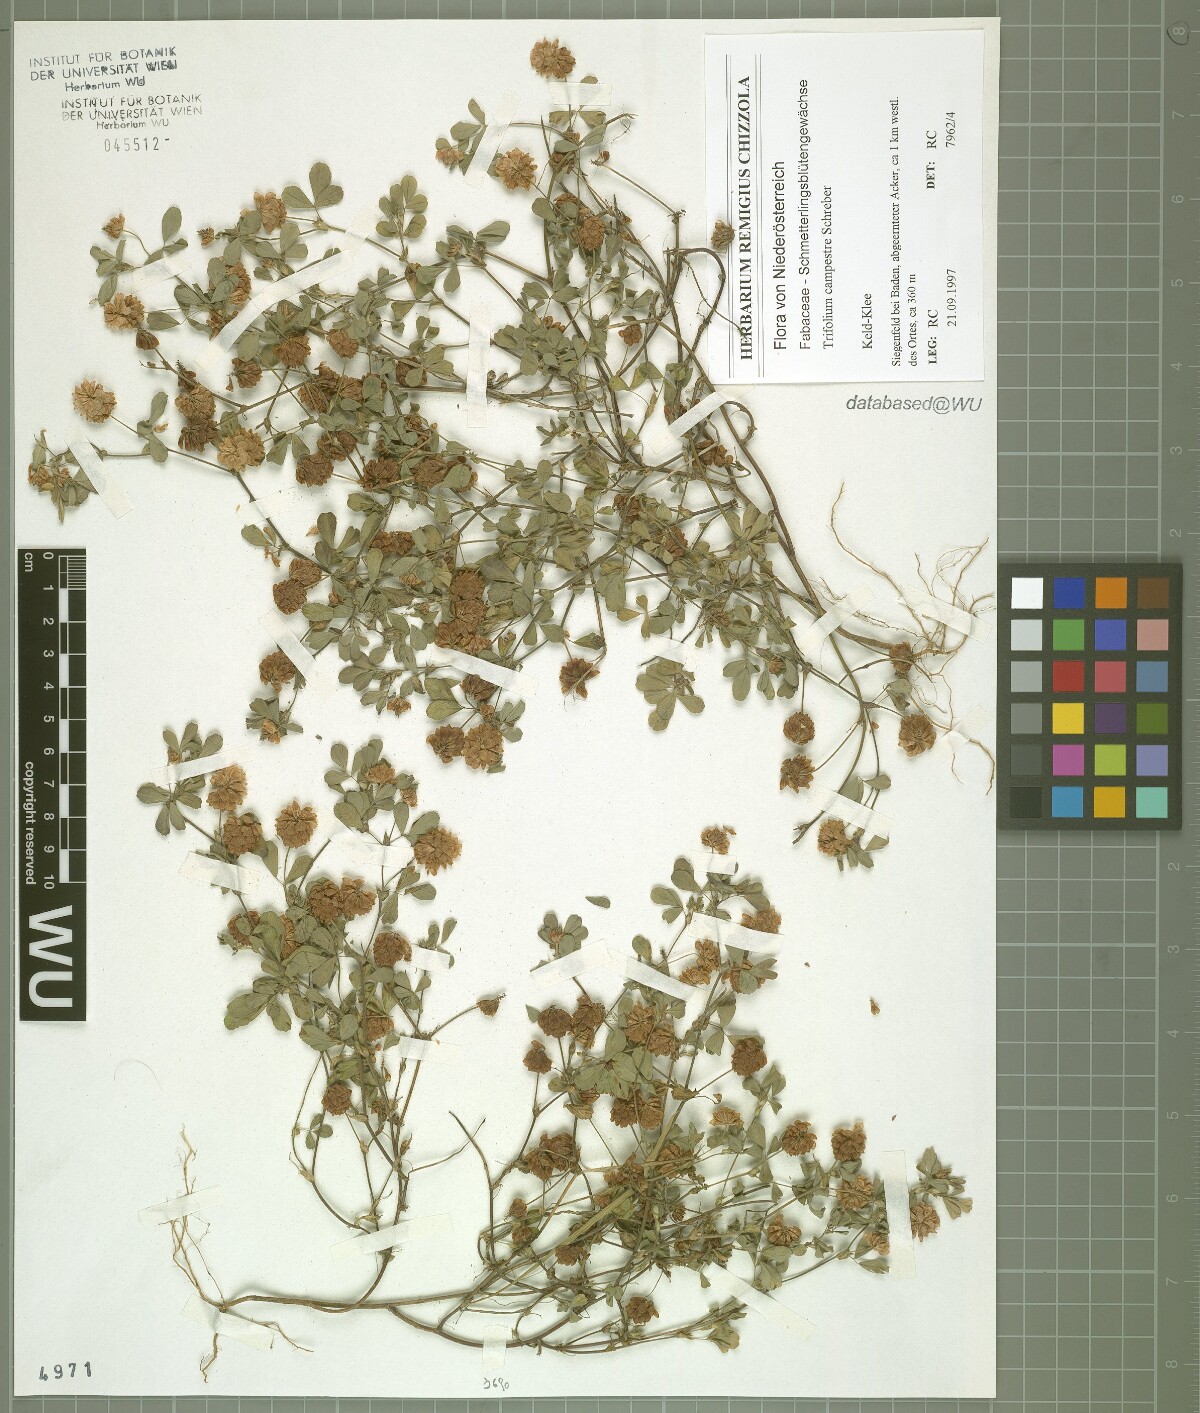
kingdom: Plantae
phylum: Tracheophyta
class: Magnoliopsida
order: Fabales
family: Fabaceae
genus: Trifolium
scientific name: Trifolium campestre
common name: Field clover
